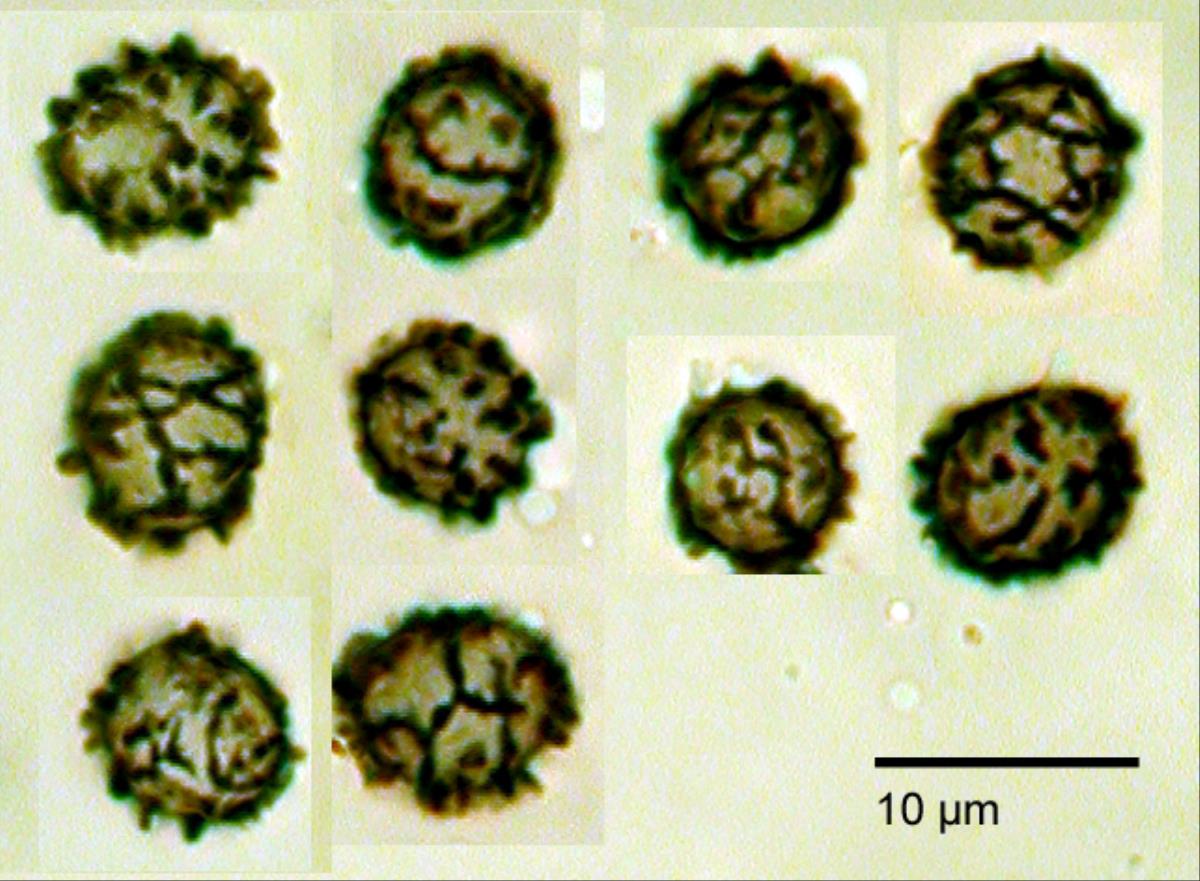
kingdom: Fungi
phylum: Basidiomycota
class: Agaricomycetes
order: Russulales
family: Russulaceae
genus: Lactarius
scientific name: Lactarius
